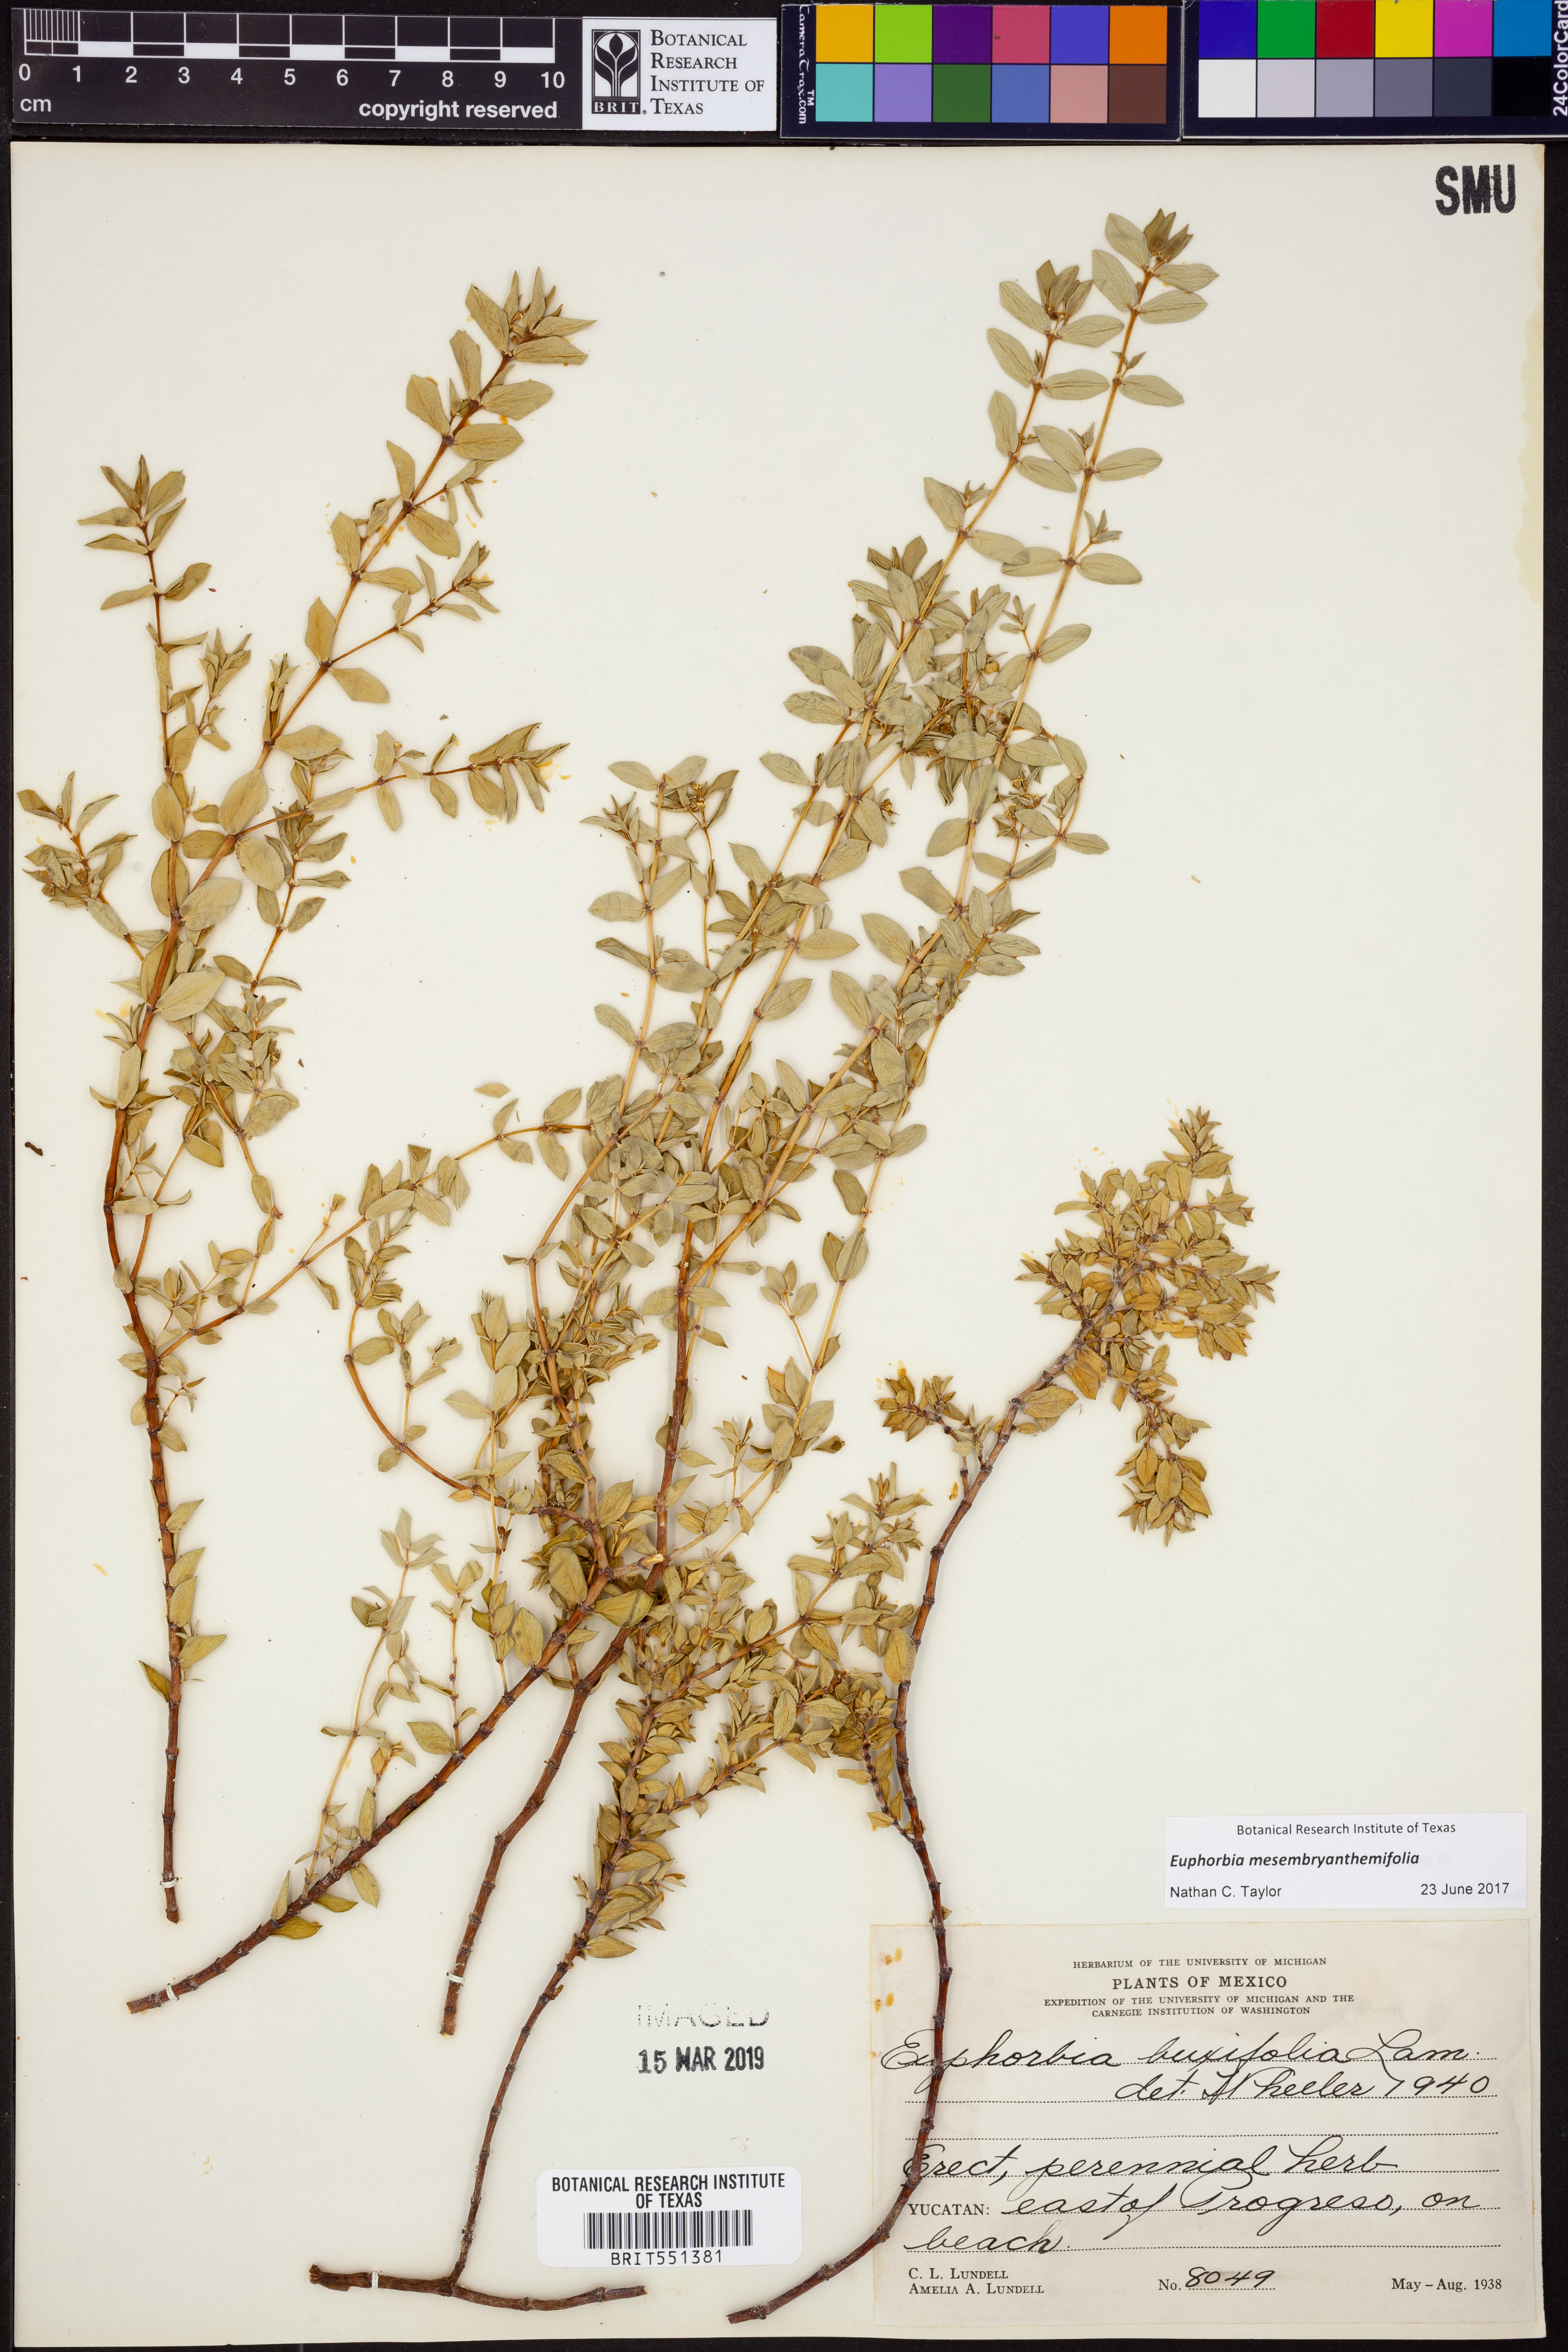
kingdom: Plantae
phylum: Tracheophyta
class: Magnoliopsida
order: Malpighiales
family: Euphorbiaceae
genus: Euphorbia
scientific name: Euphorbia mesembryanthemifolia
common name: Coastal beach sandmat
